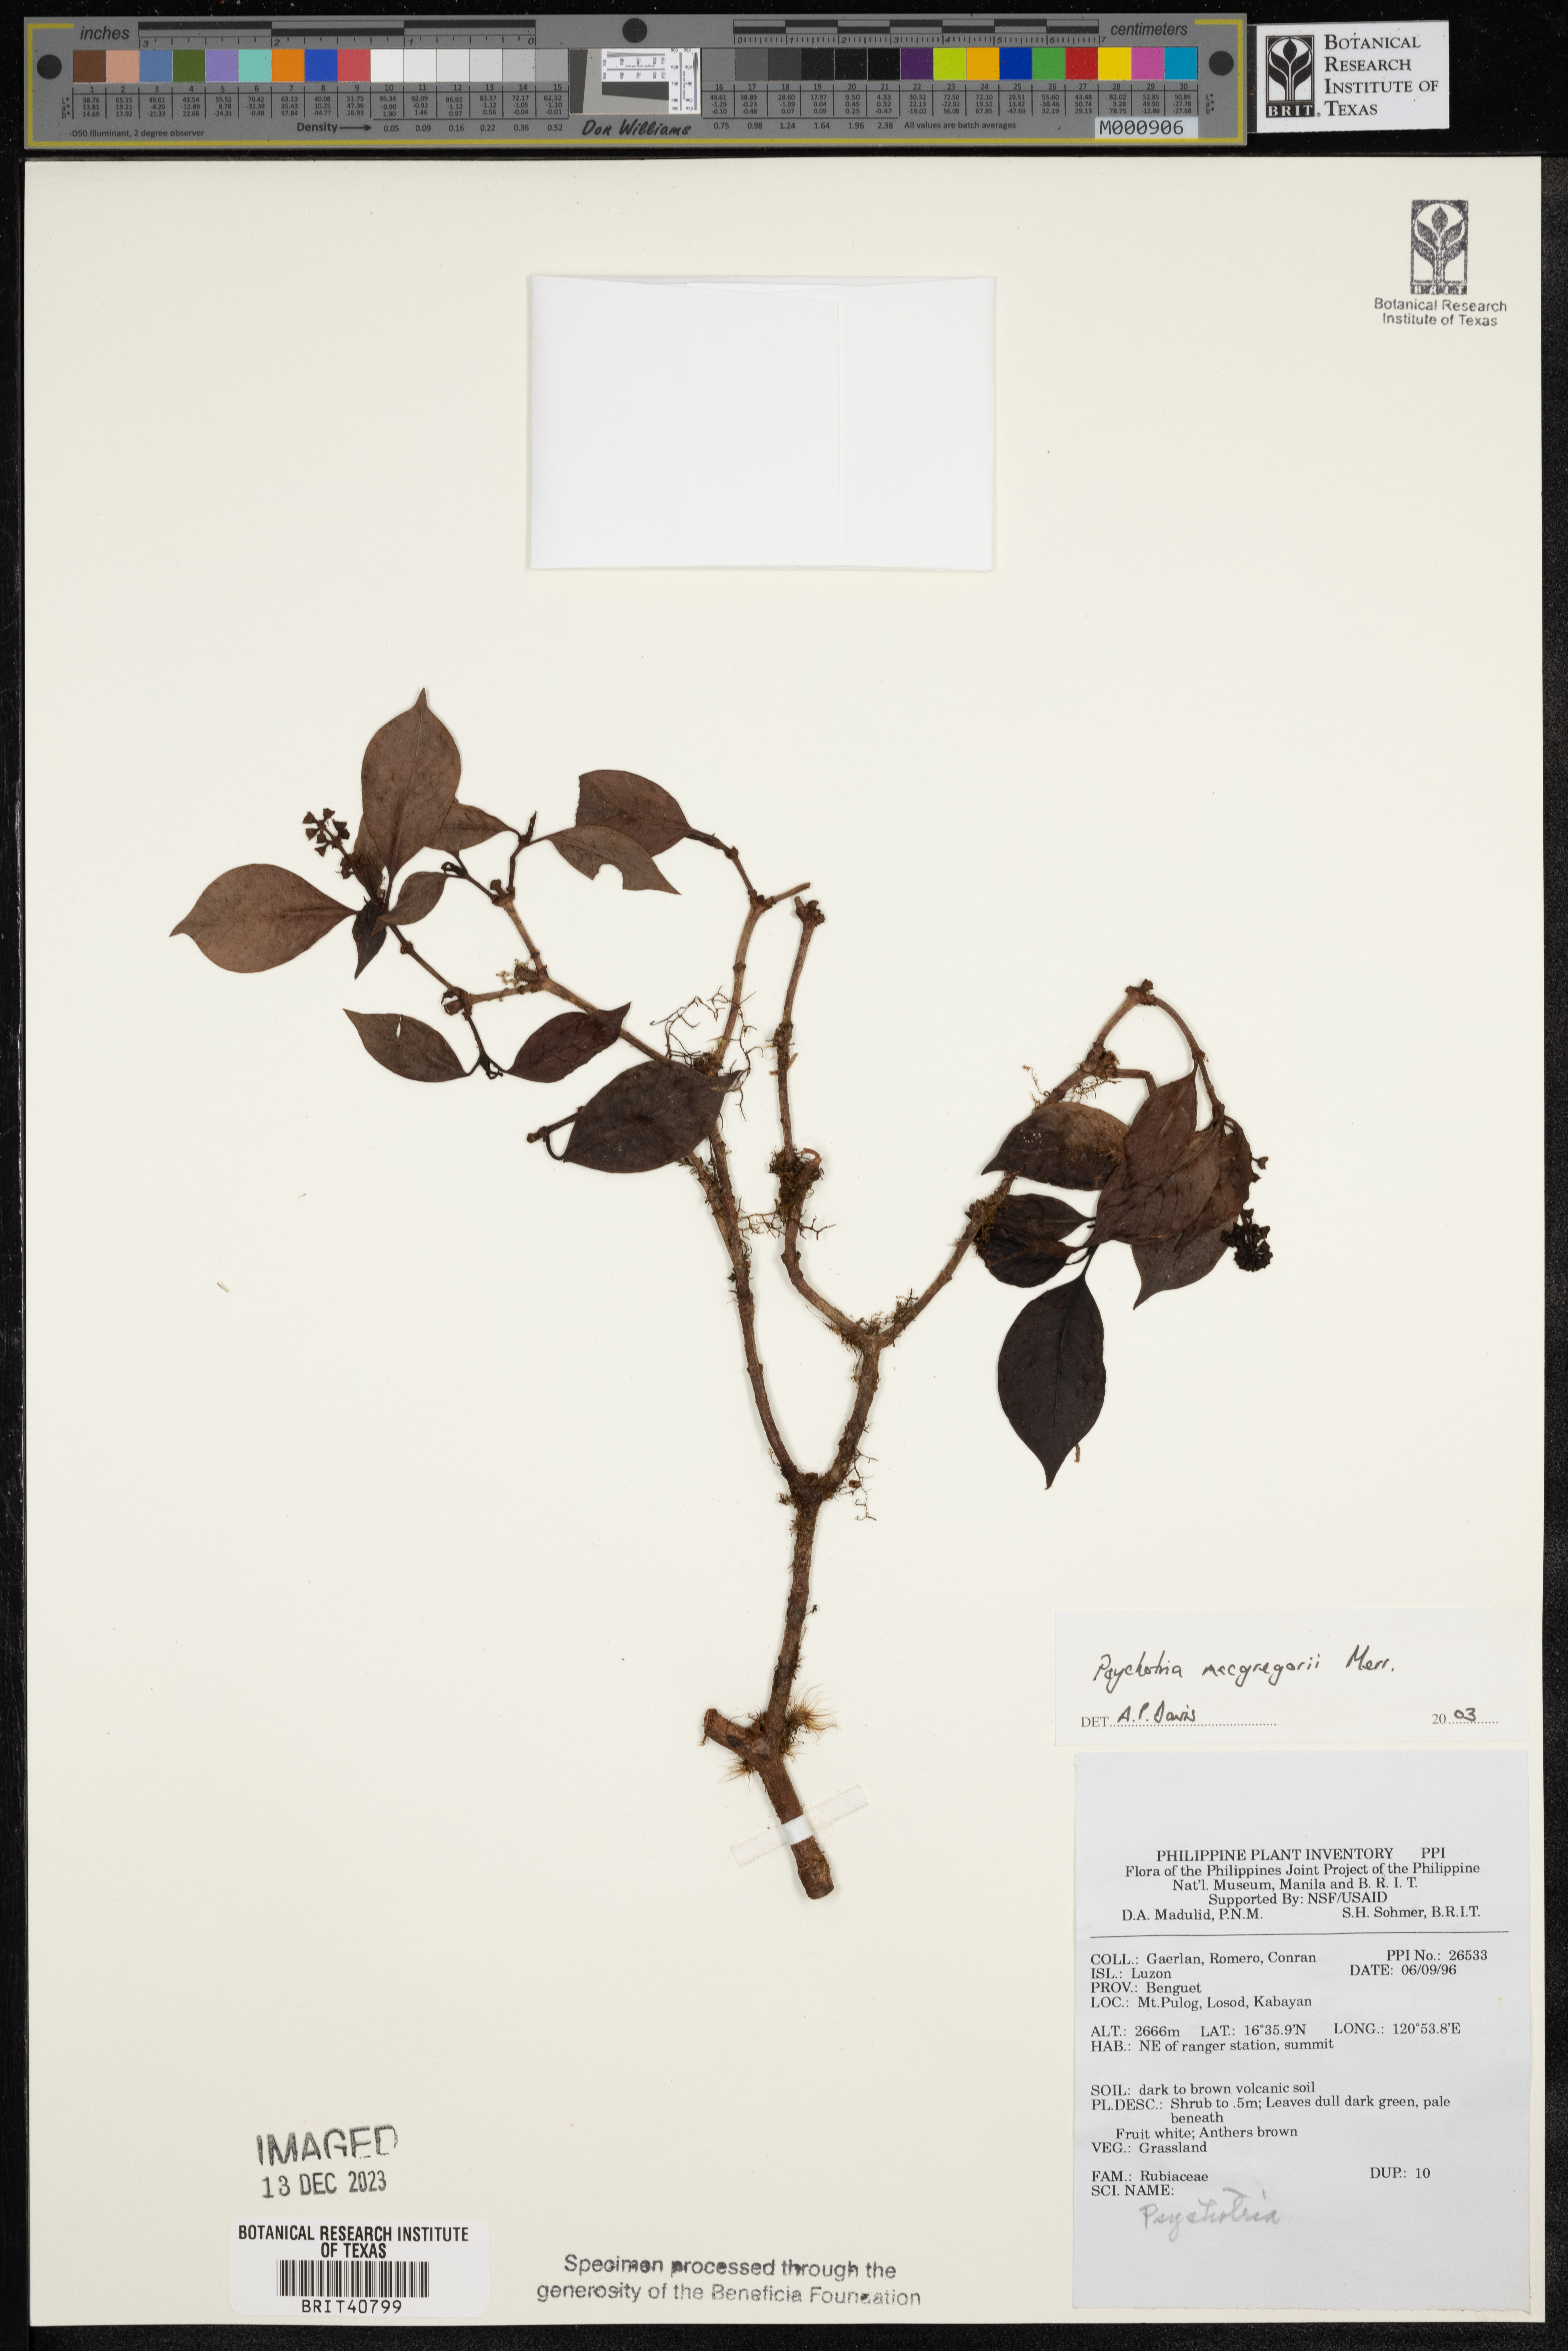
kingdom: Plantae
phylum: Tracheophyta
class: Magnoliopsida
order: Gentianales
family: Rubiaceae
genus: Psychotria
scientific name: Psychotria macgregorii
